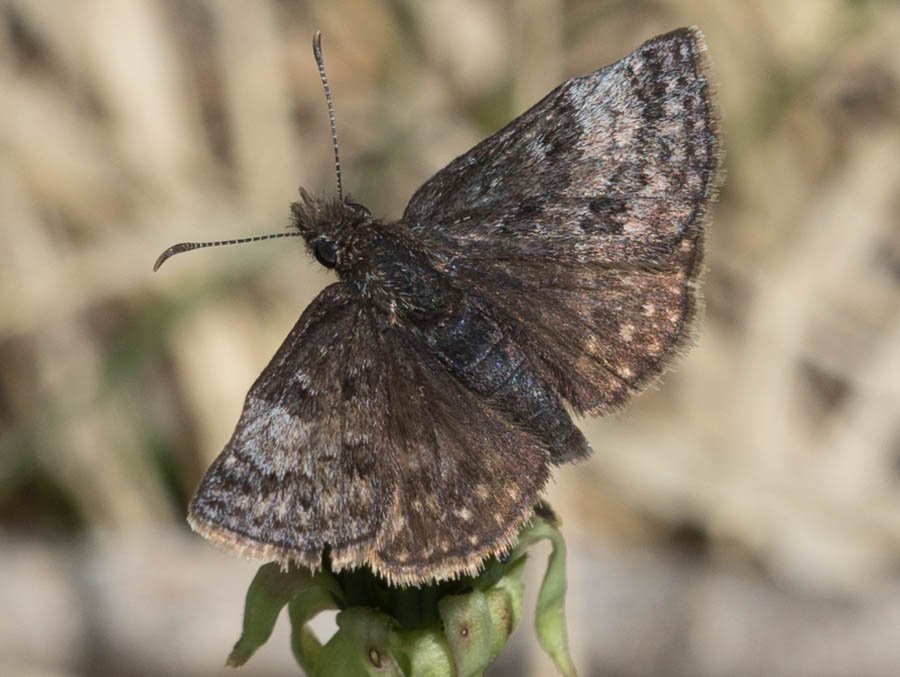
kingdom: Animalia
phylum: Arthropoda
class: Insecta
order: Lepidoptera
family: Hesperiidae
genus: Erynnis
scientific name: Erynnis icelus
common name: Dreamy Duskywing
